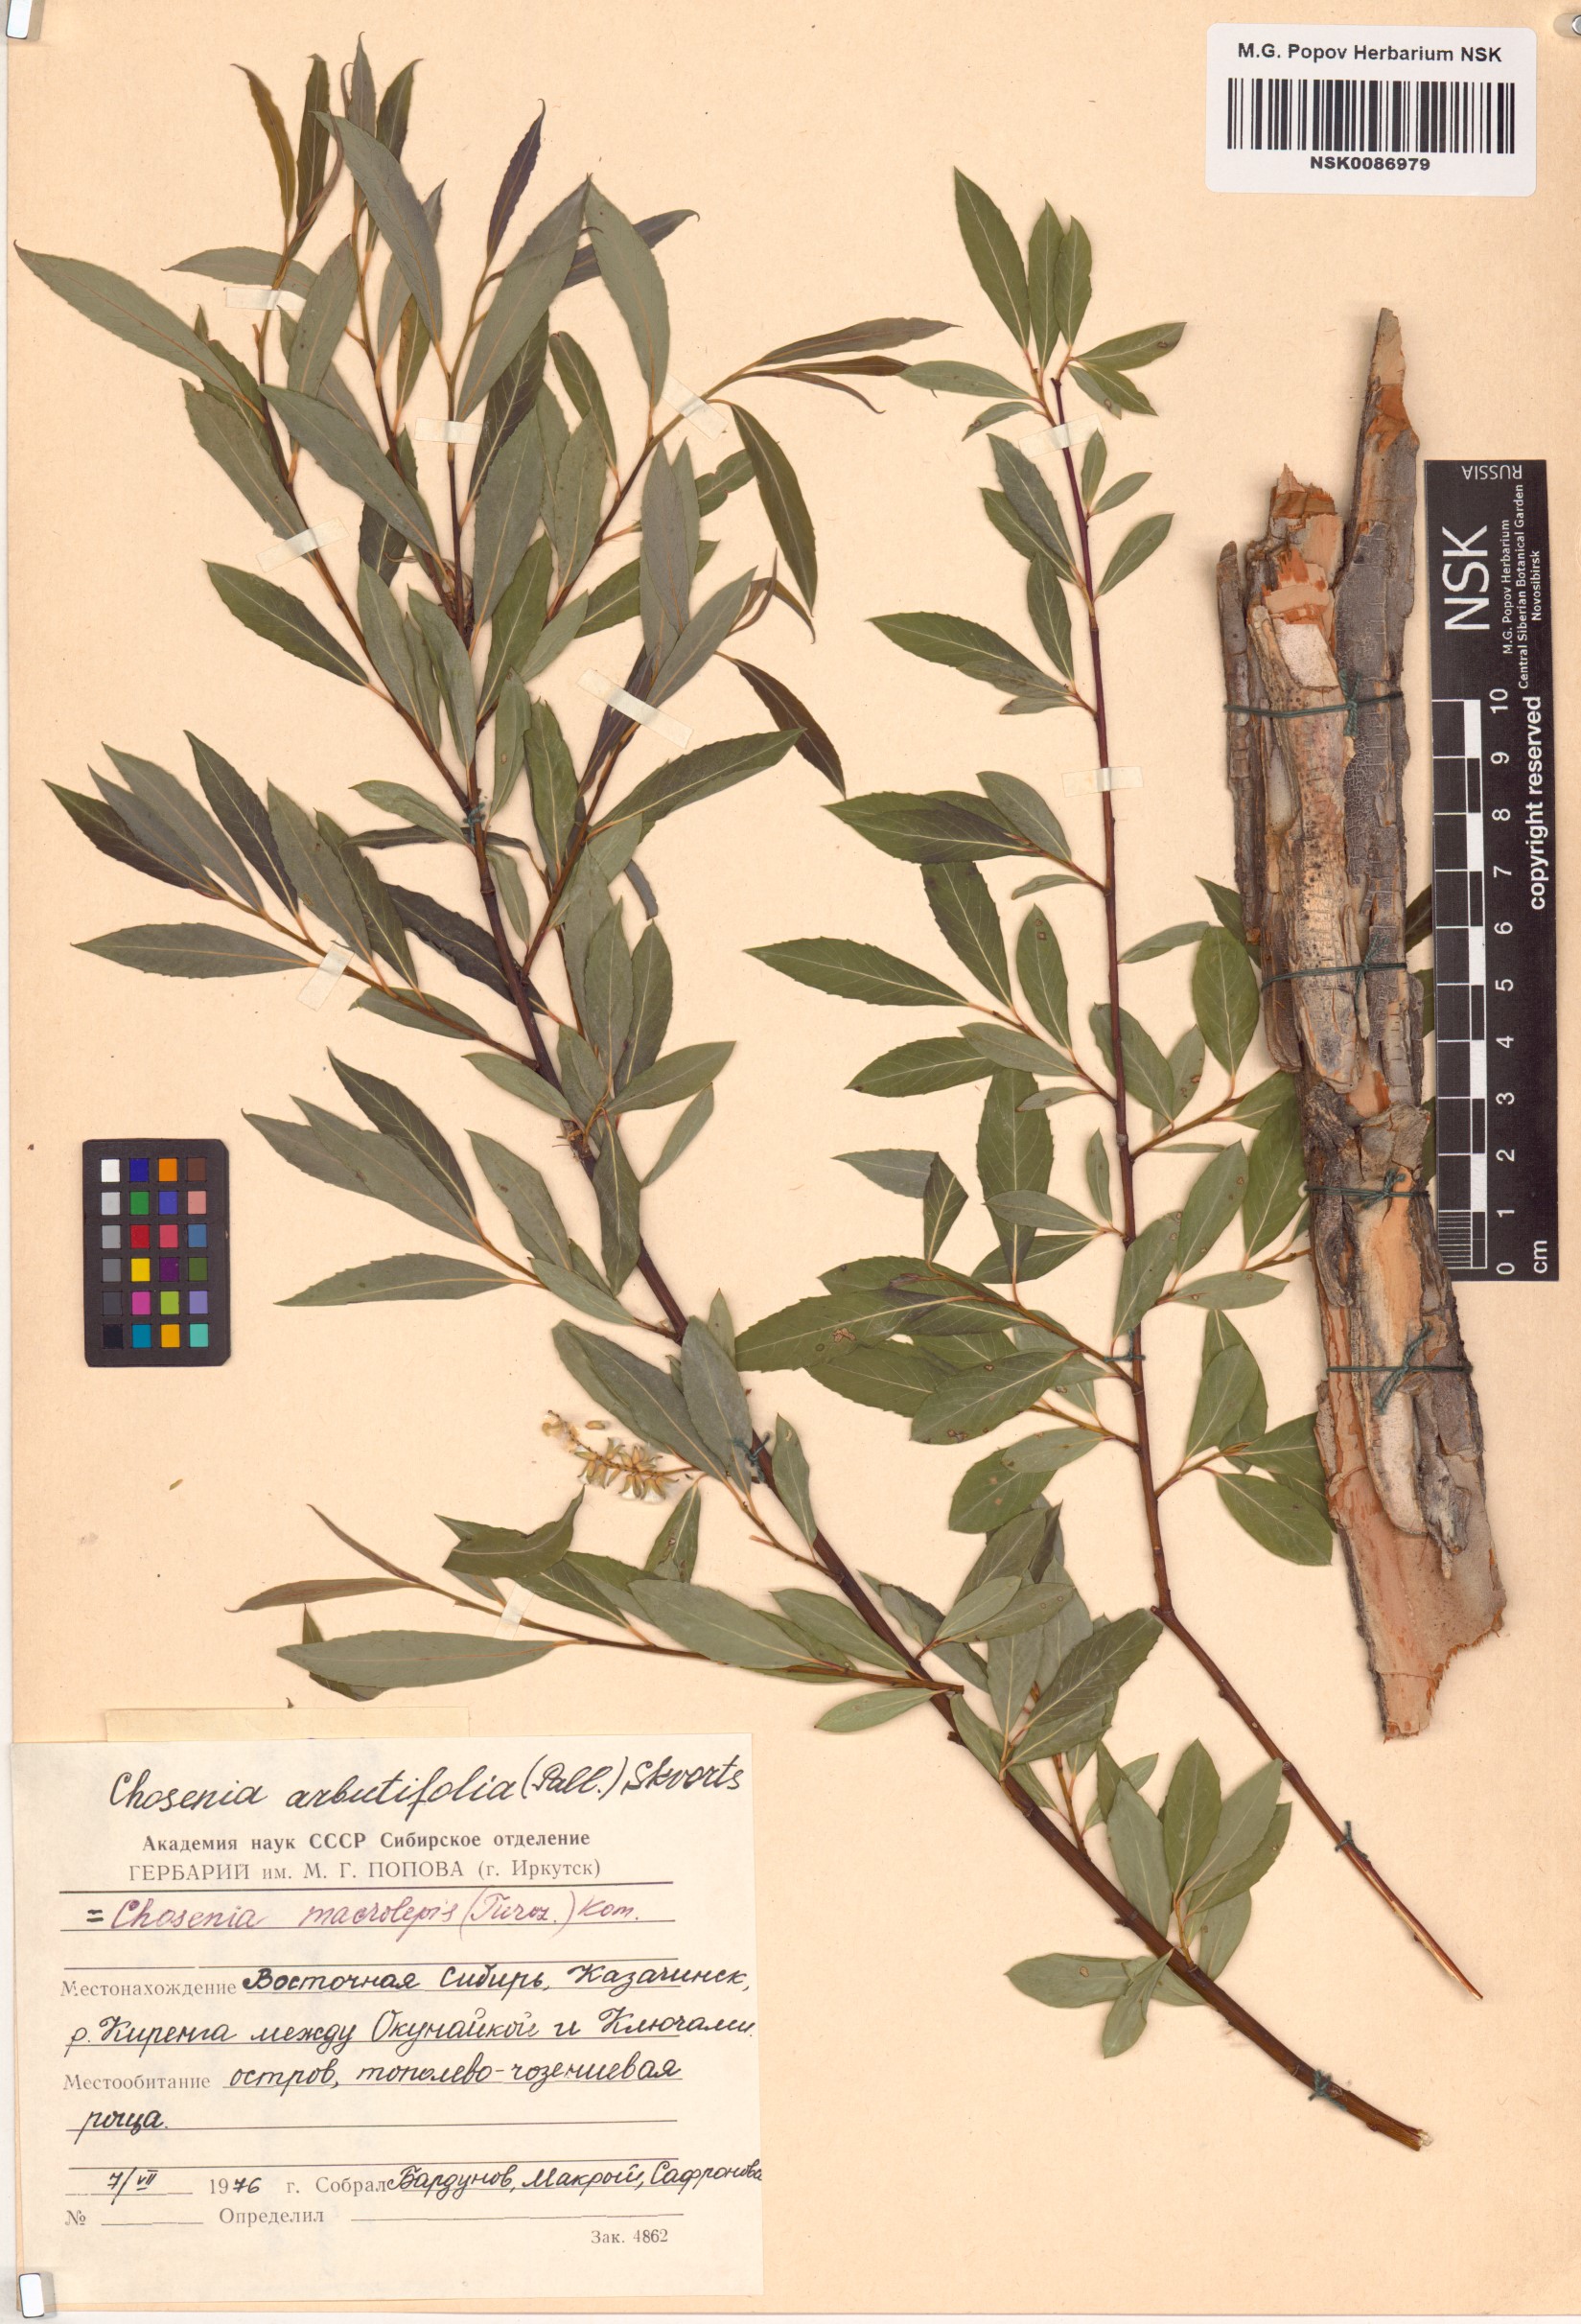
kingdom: Plantae
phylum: Tracheophyta
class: Magnoliopsida
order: Malpighiales
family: Salicaceae
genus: Chosenia
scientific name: Chosenia arbutifolia
